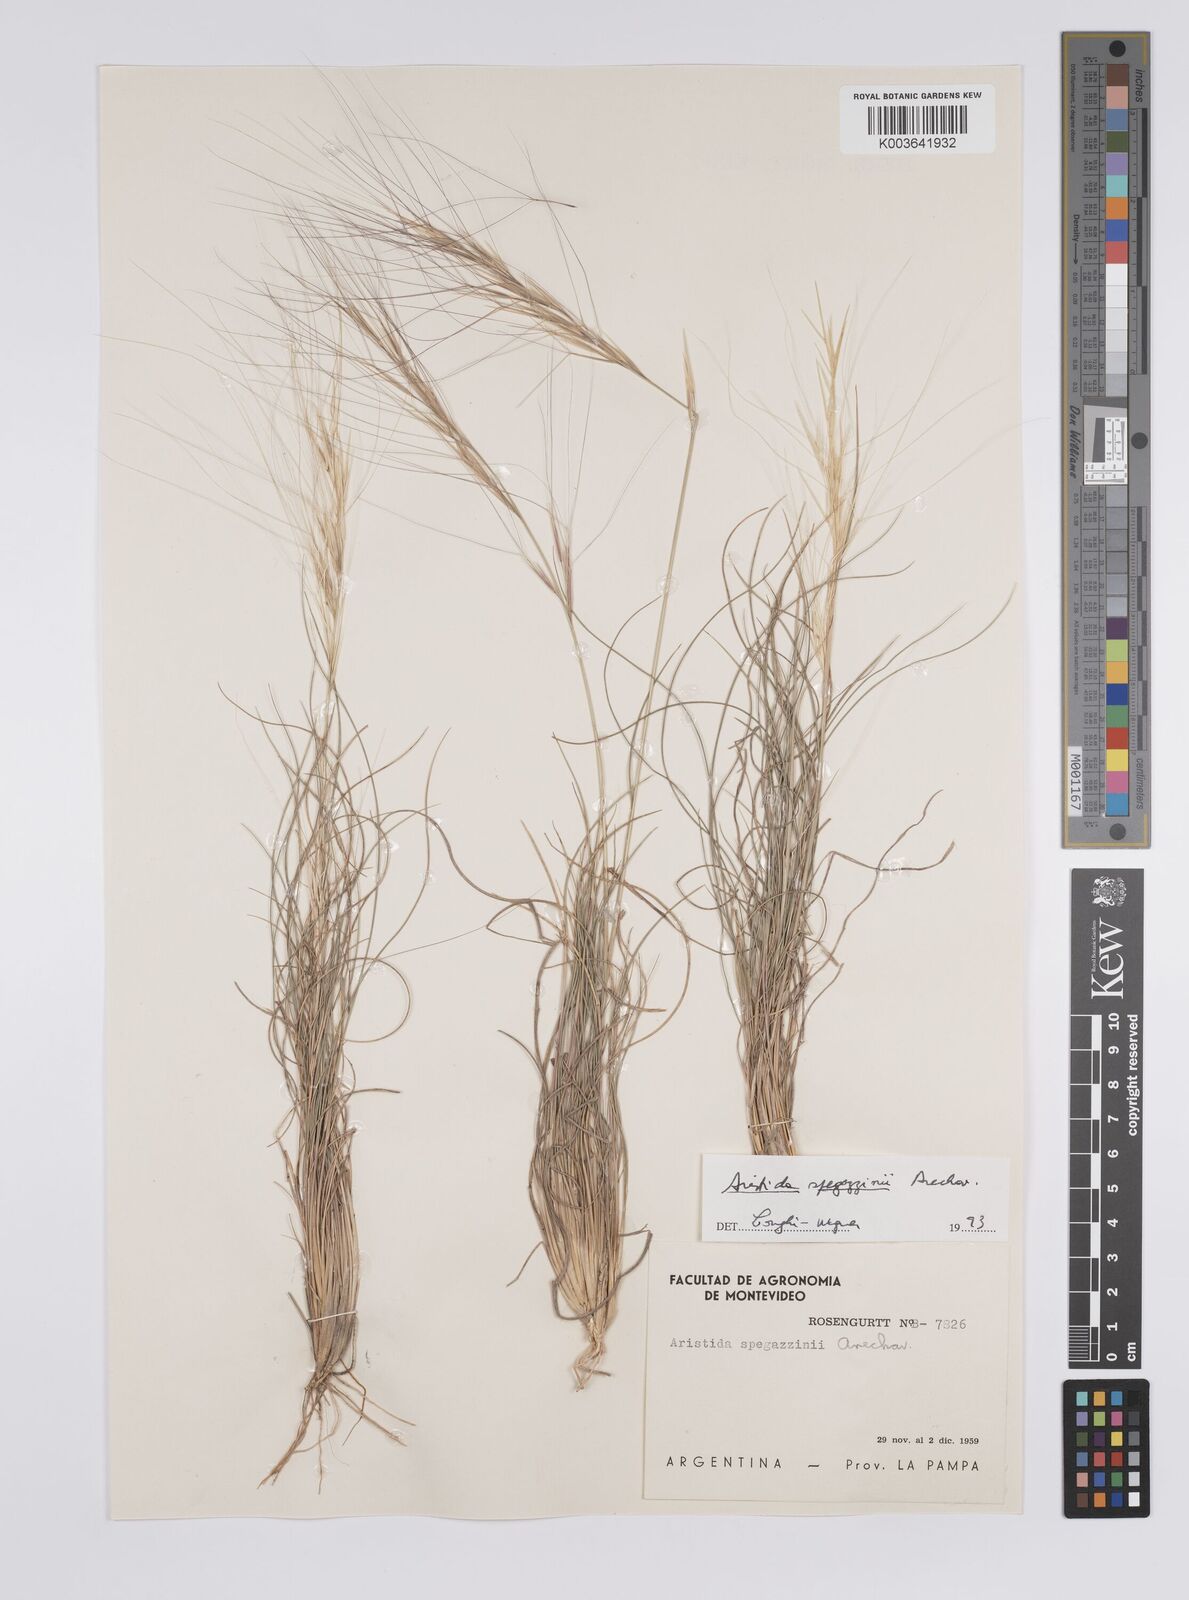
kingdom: Plantae
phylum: Tracheophyta
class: Liliopsida
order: Poales
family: Poaceae
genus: Aristida
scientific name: Aristida spegazzinii
